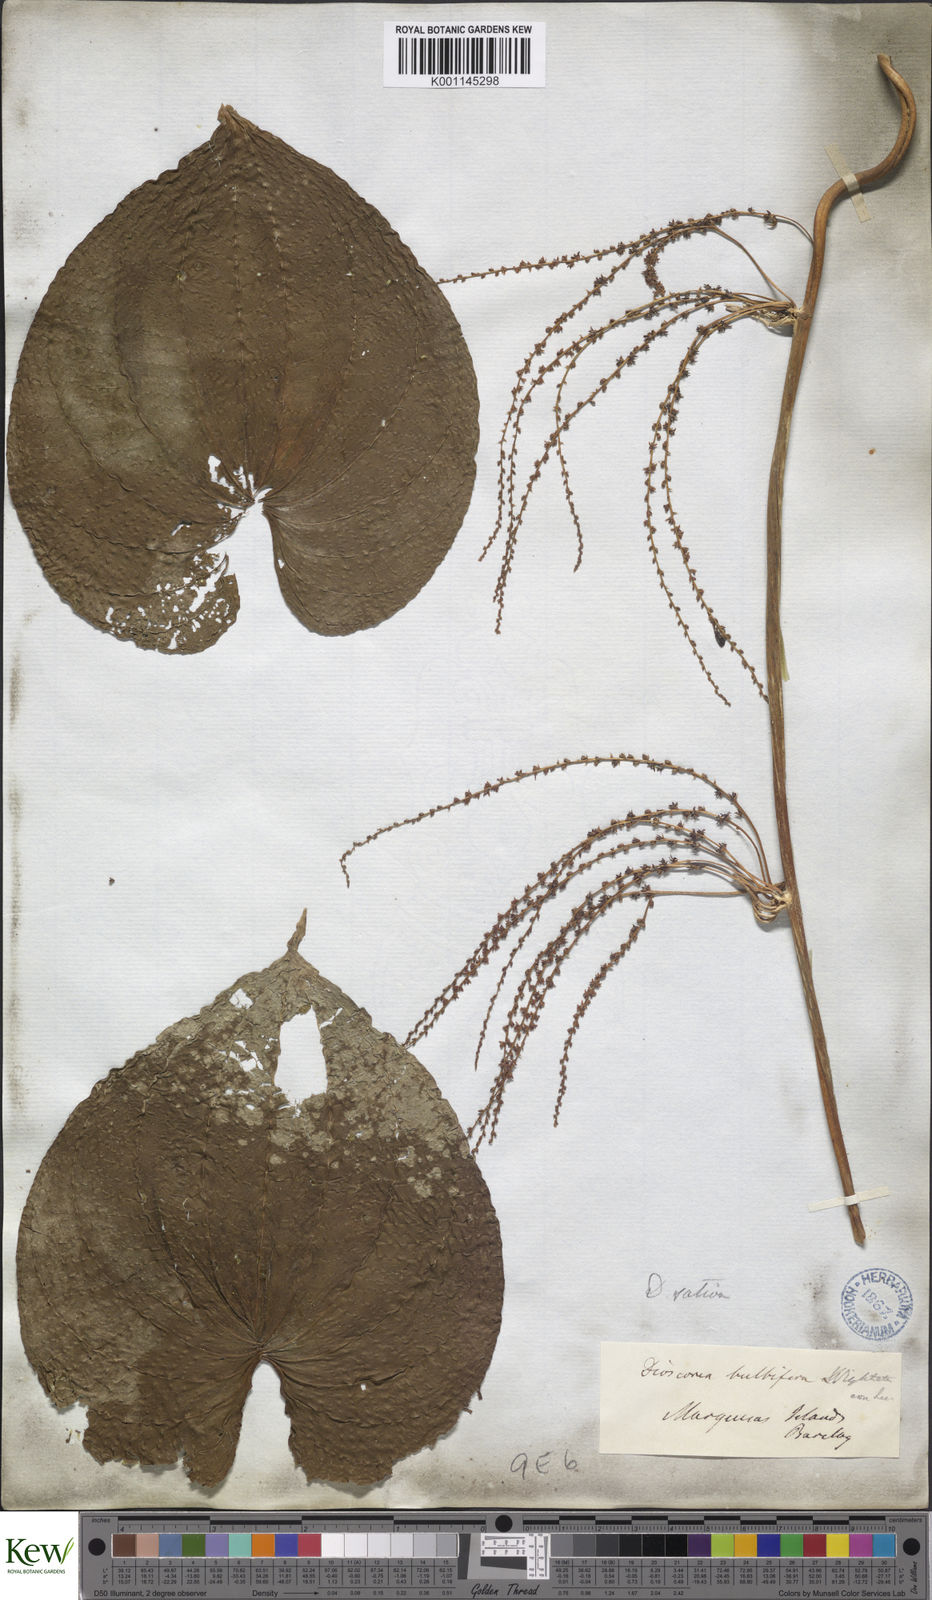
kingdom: Plantae
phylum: Tracheophyta
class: Liliopsida
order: Dioscoreales
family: Dioscoreaceae
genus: Dioscorea
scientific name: Dioscorea bulbifera
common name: Air yam
